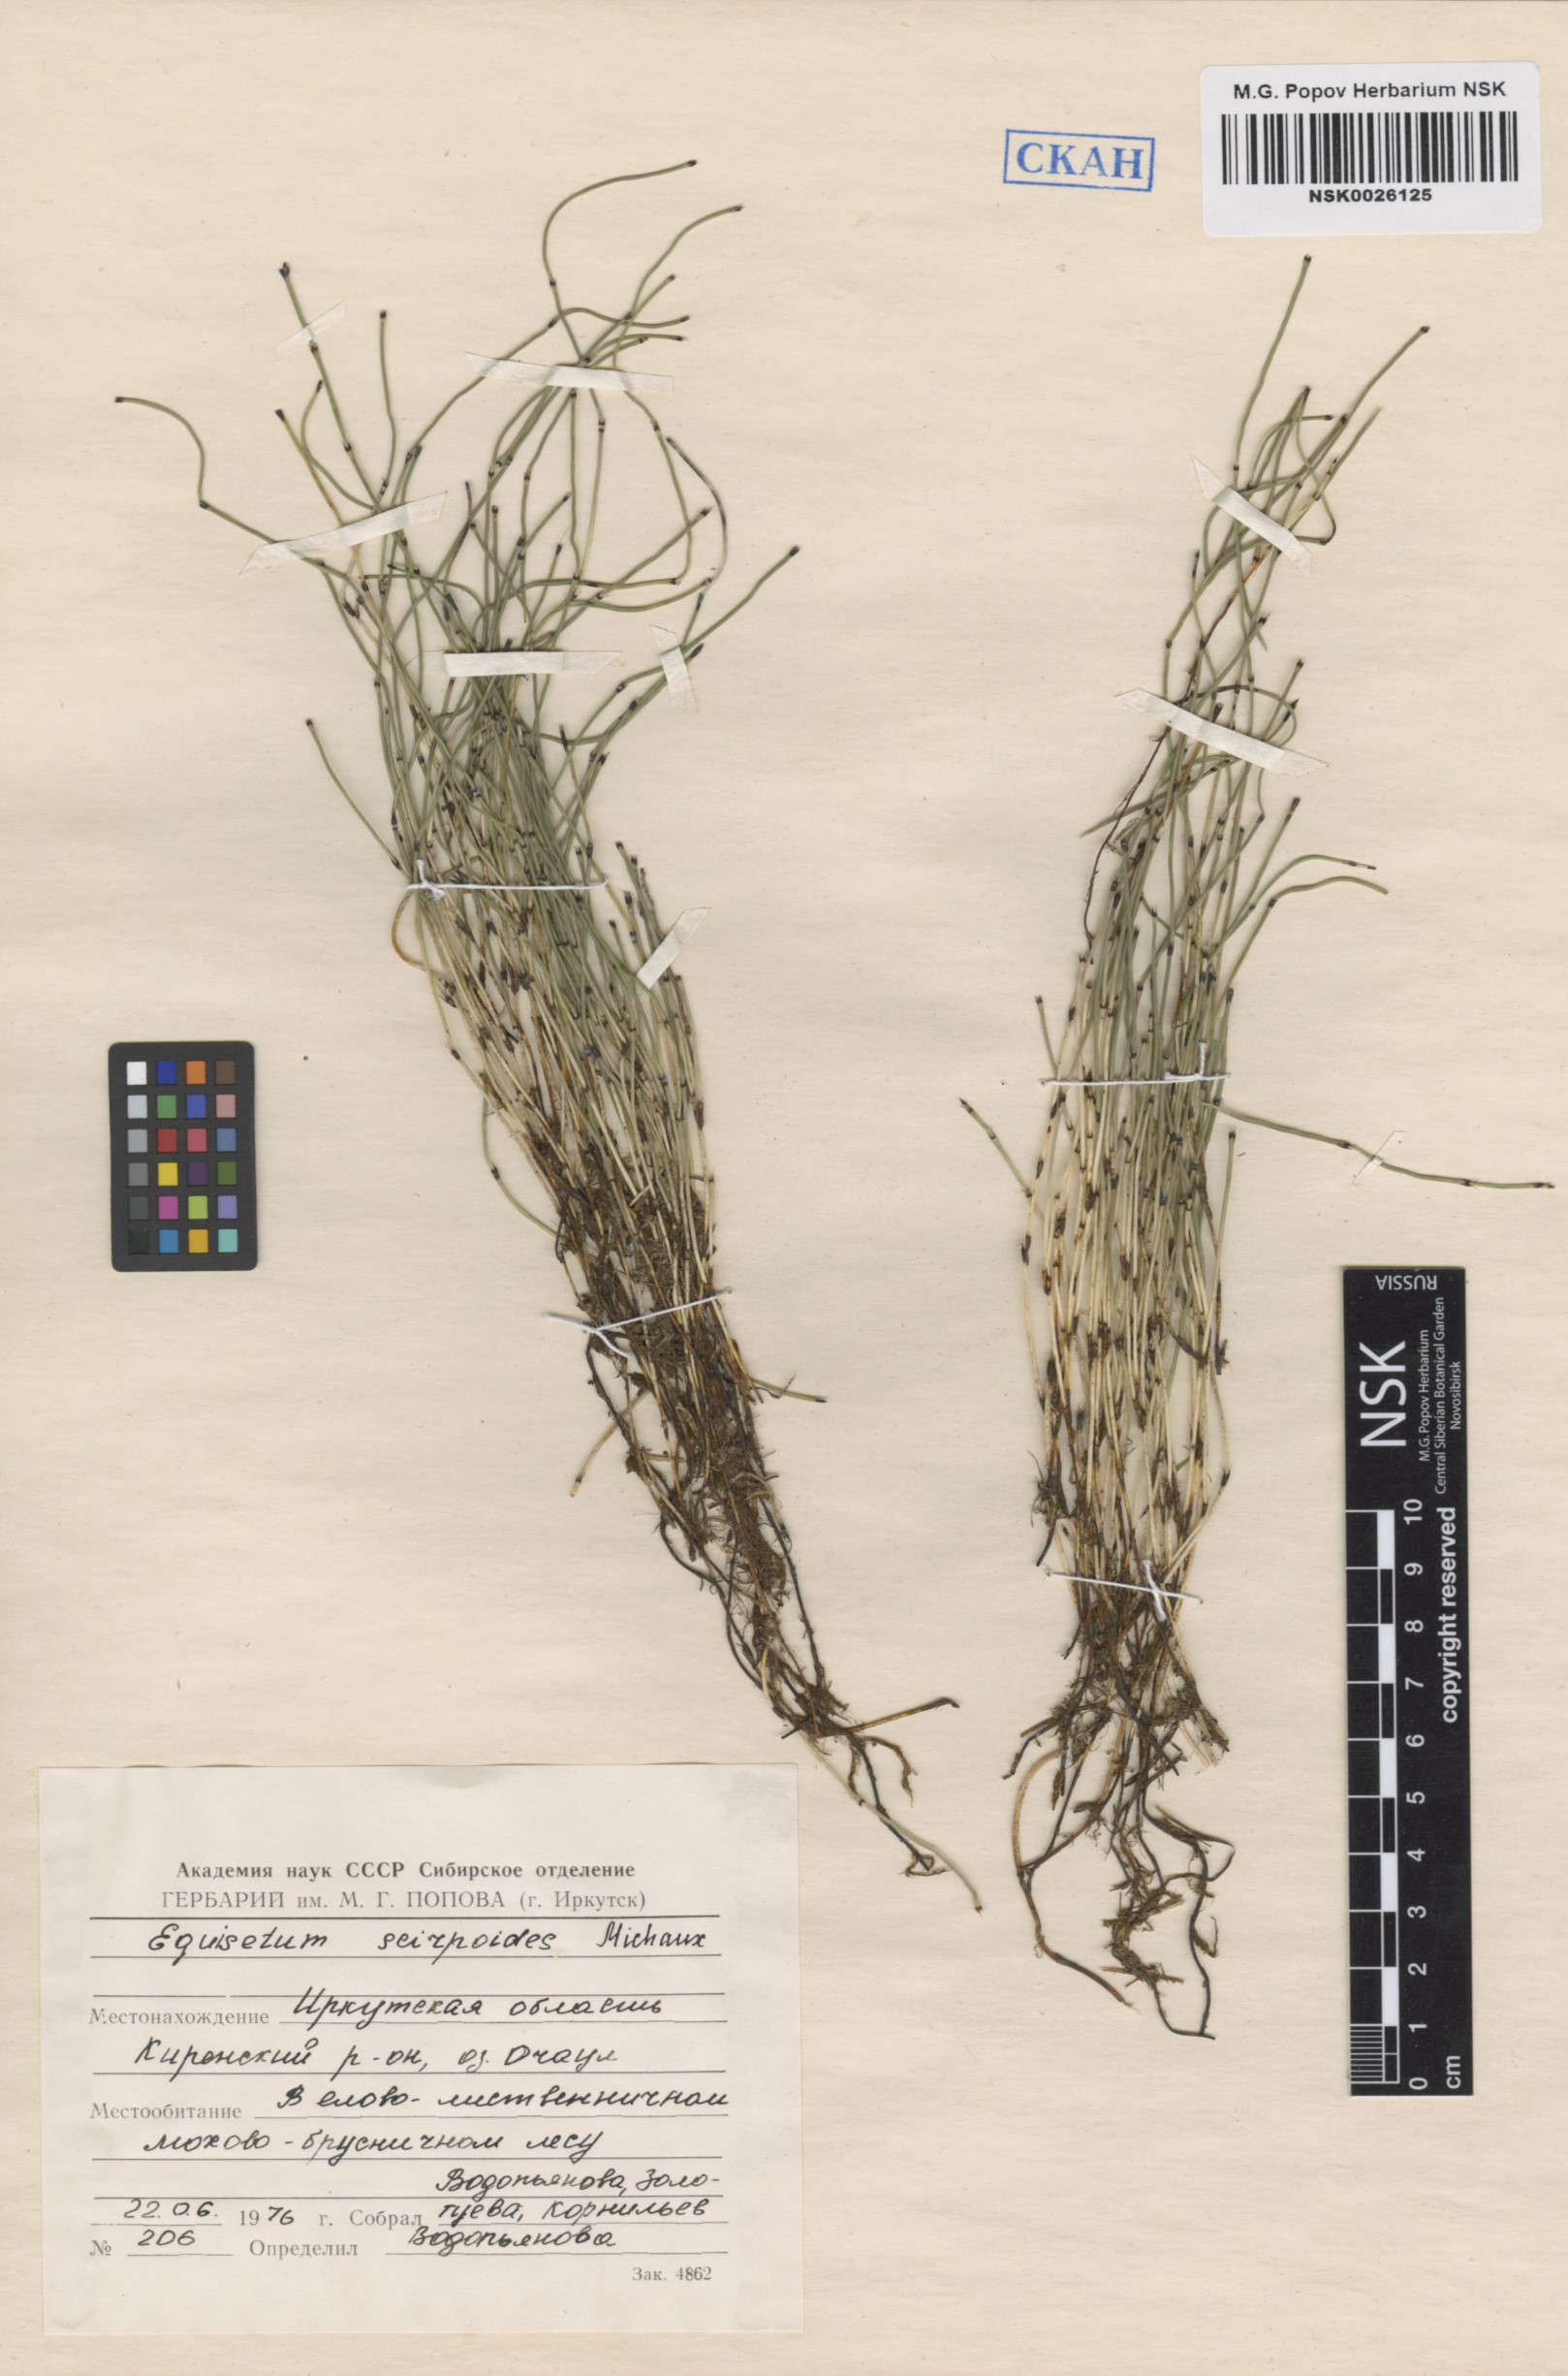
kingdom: Plantae
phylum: Tracheophyta
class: Polypodiopsida
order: Equisetales
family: Equisetaceae
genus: Equisetum
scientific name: Equisetum scirpoides
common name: Delicate horsetail
